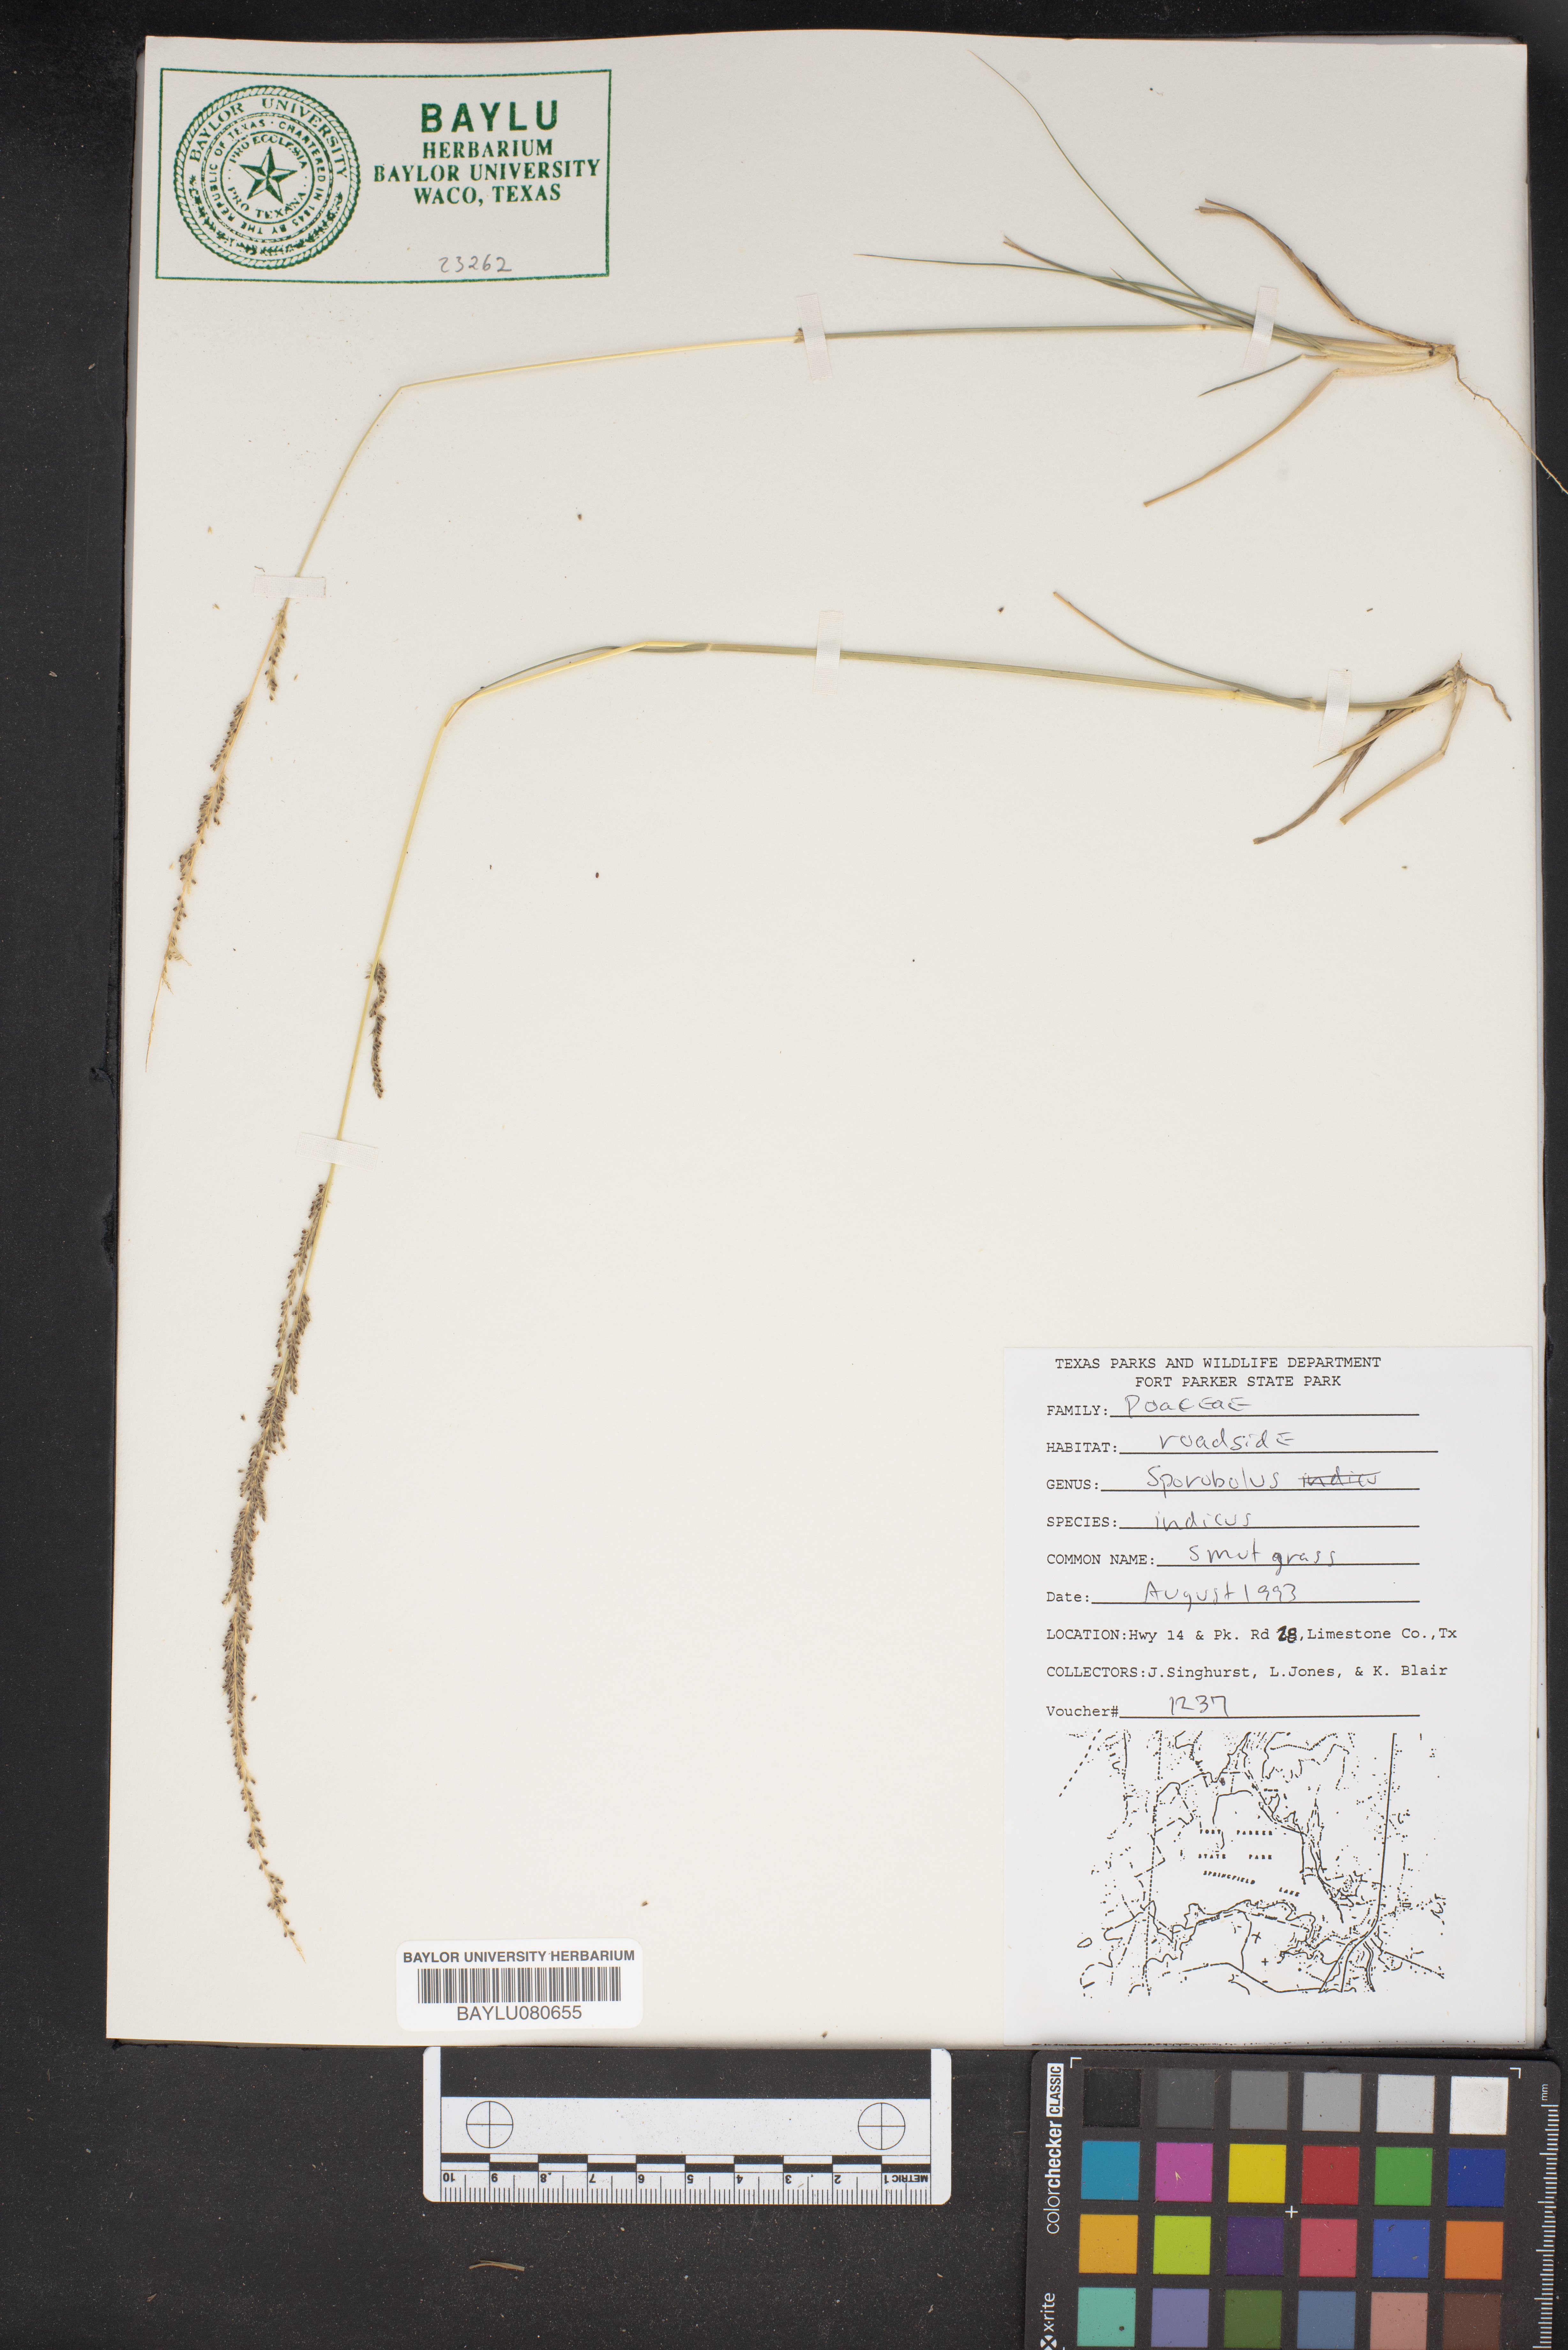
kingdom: Plantae
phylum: Tracheophyta
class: Liliopsida
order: Poales
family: Poaceae
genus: Sporobolus
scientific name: Sporobolus indicus
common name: Smut grass
